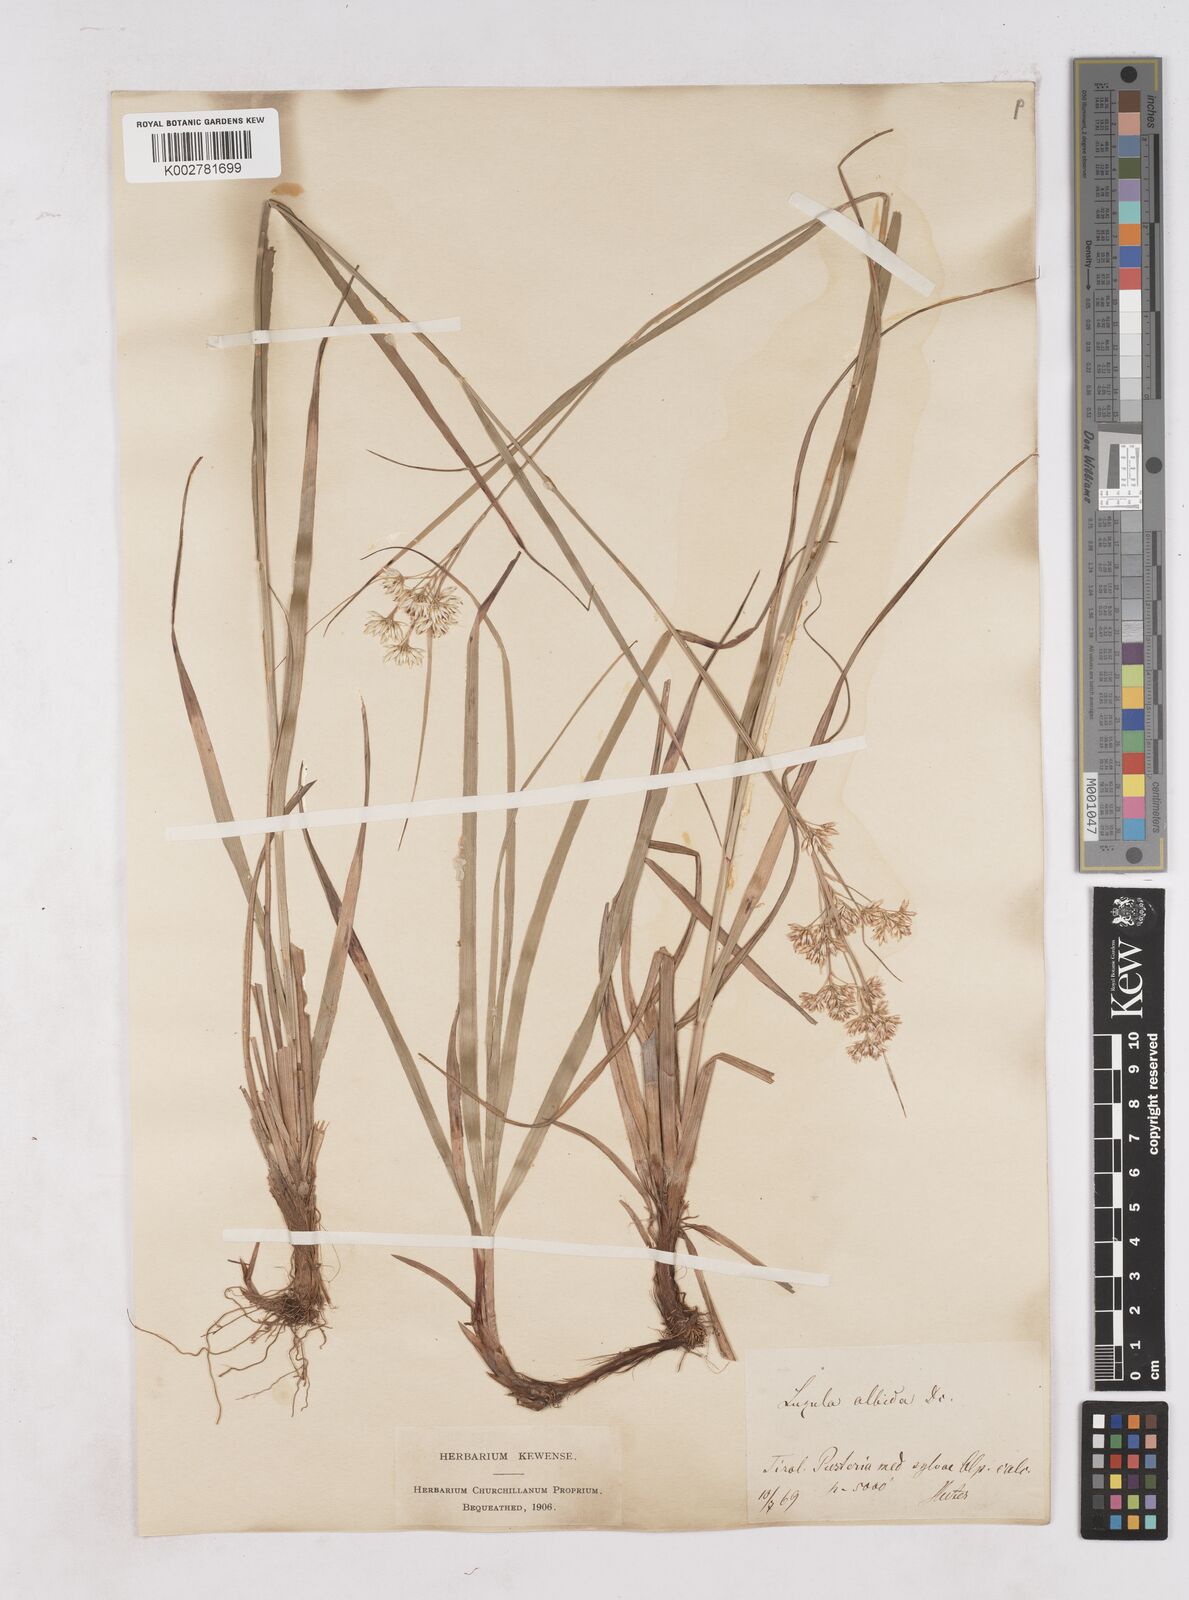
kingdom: Plantae
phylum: Tracheophyta
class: Liliopsida
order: Poales
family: Juncaceae
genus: Luzula
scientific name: Luzula luzuloides
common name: White wood-rush
